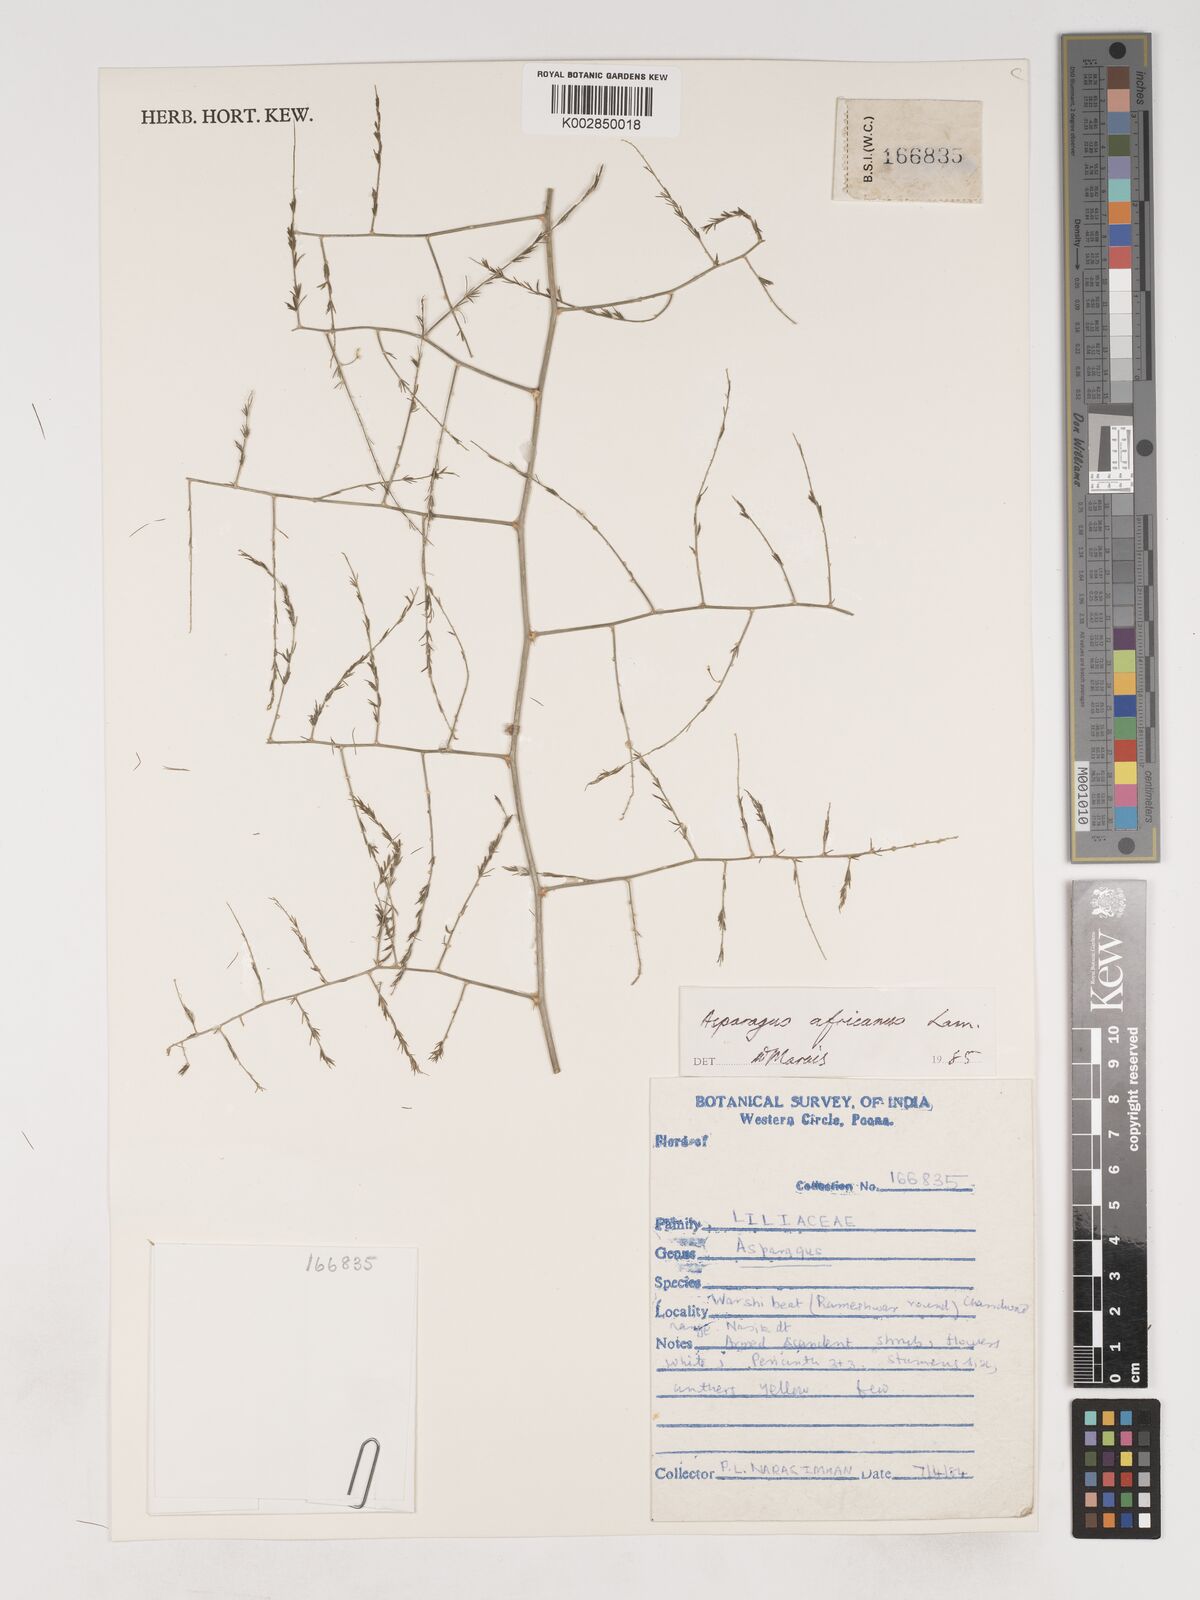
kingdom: Plantae
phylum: Tracheophyta
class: Liliopsida
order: Asparagales
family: Asparagaceae
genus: Asparagus
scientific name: Asparagus africanus
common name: Asparagus-fern
